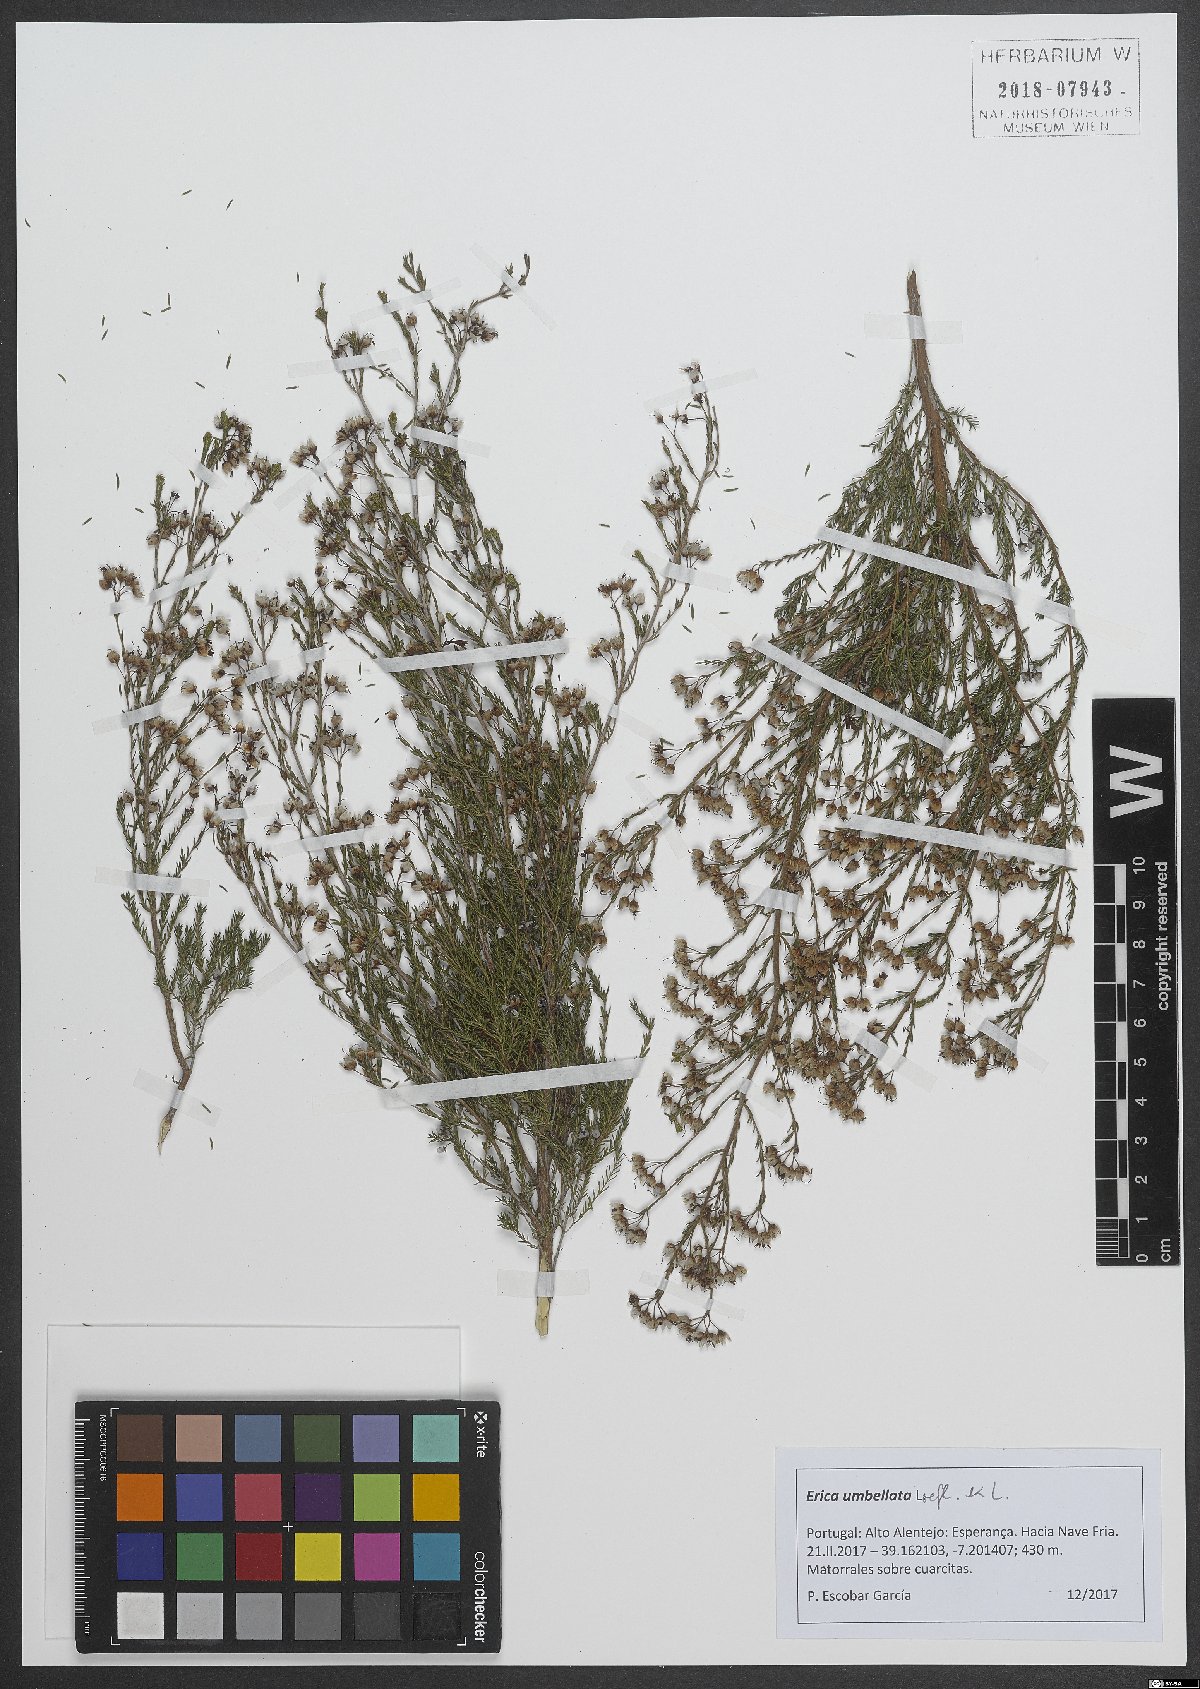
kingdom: Plantae
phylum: Tracheophyta
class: Magnoliopsida
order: Ericales
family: Ericaceae
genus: Erica
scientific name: Erica umbellata
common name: Dwarf spanish heath
